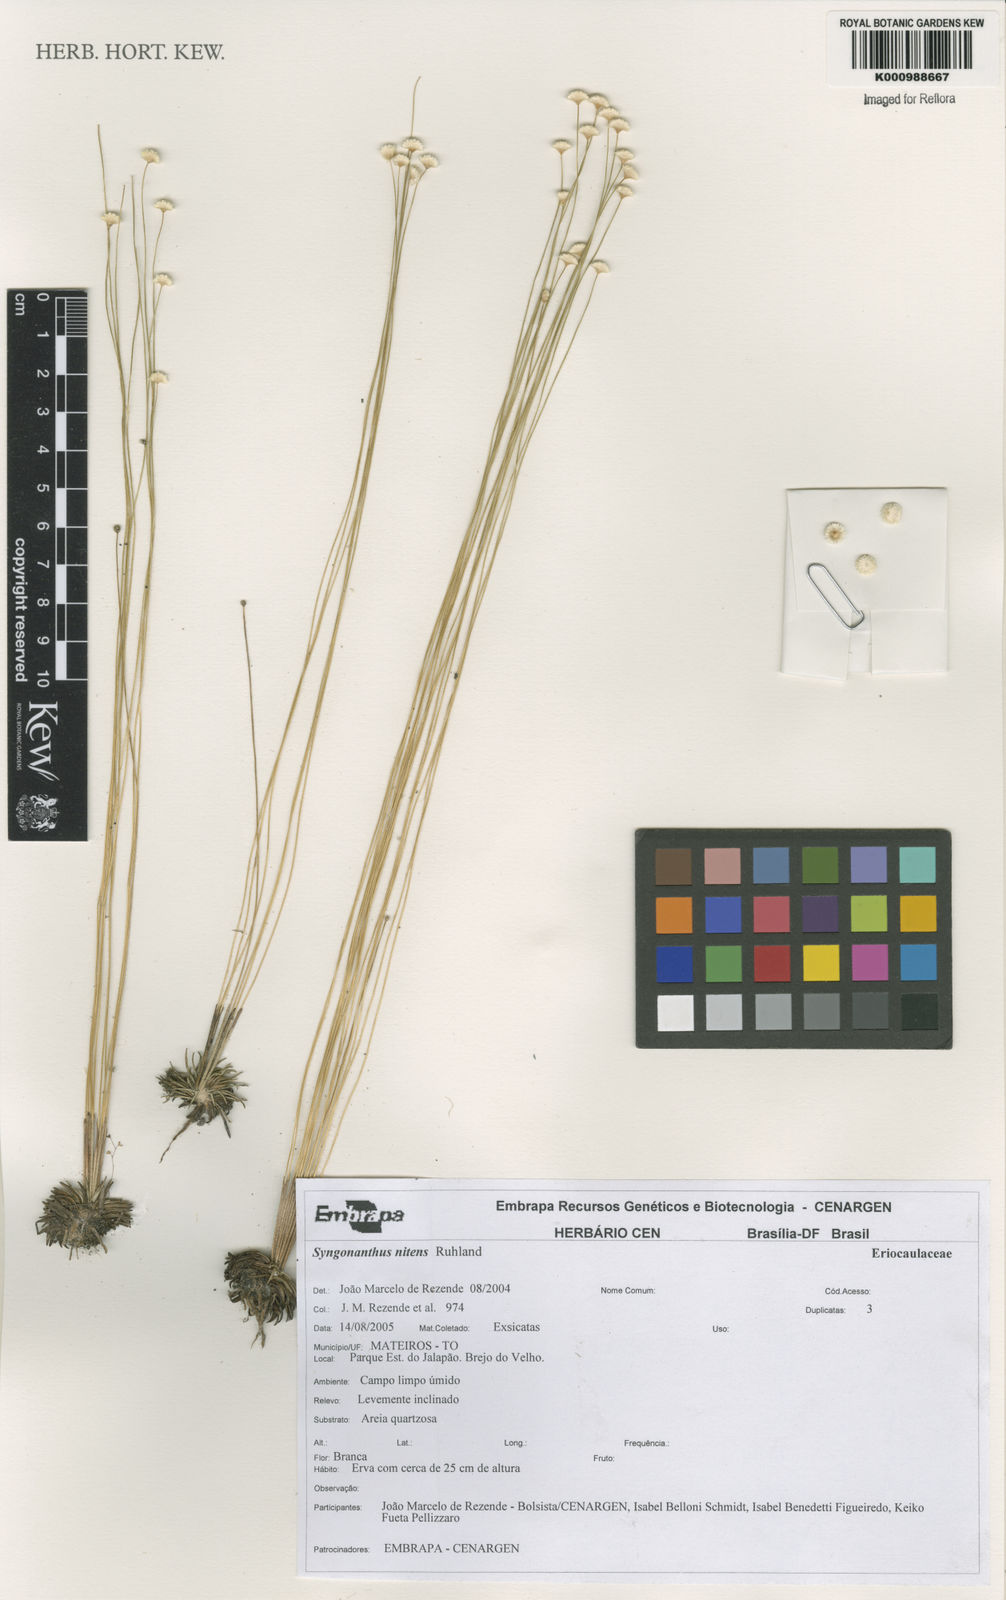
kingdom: Plantae
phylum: Tracheophyta
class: Liliopsida
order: Poales
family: Eriocaulaceae
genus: Syngonanthus
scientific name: Syngonanthus nitens
